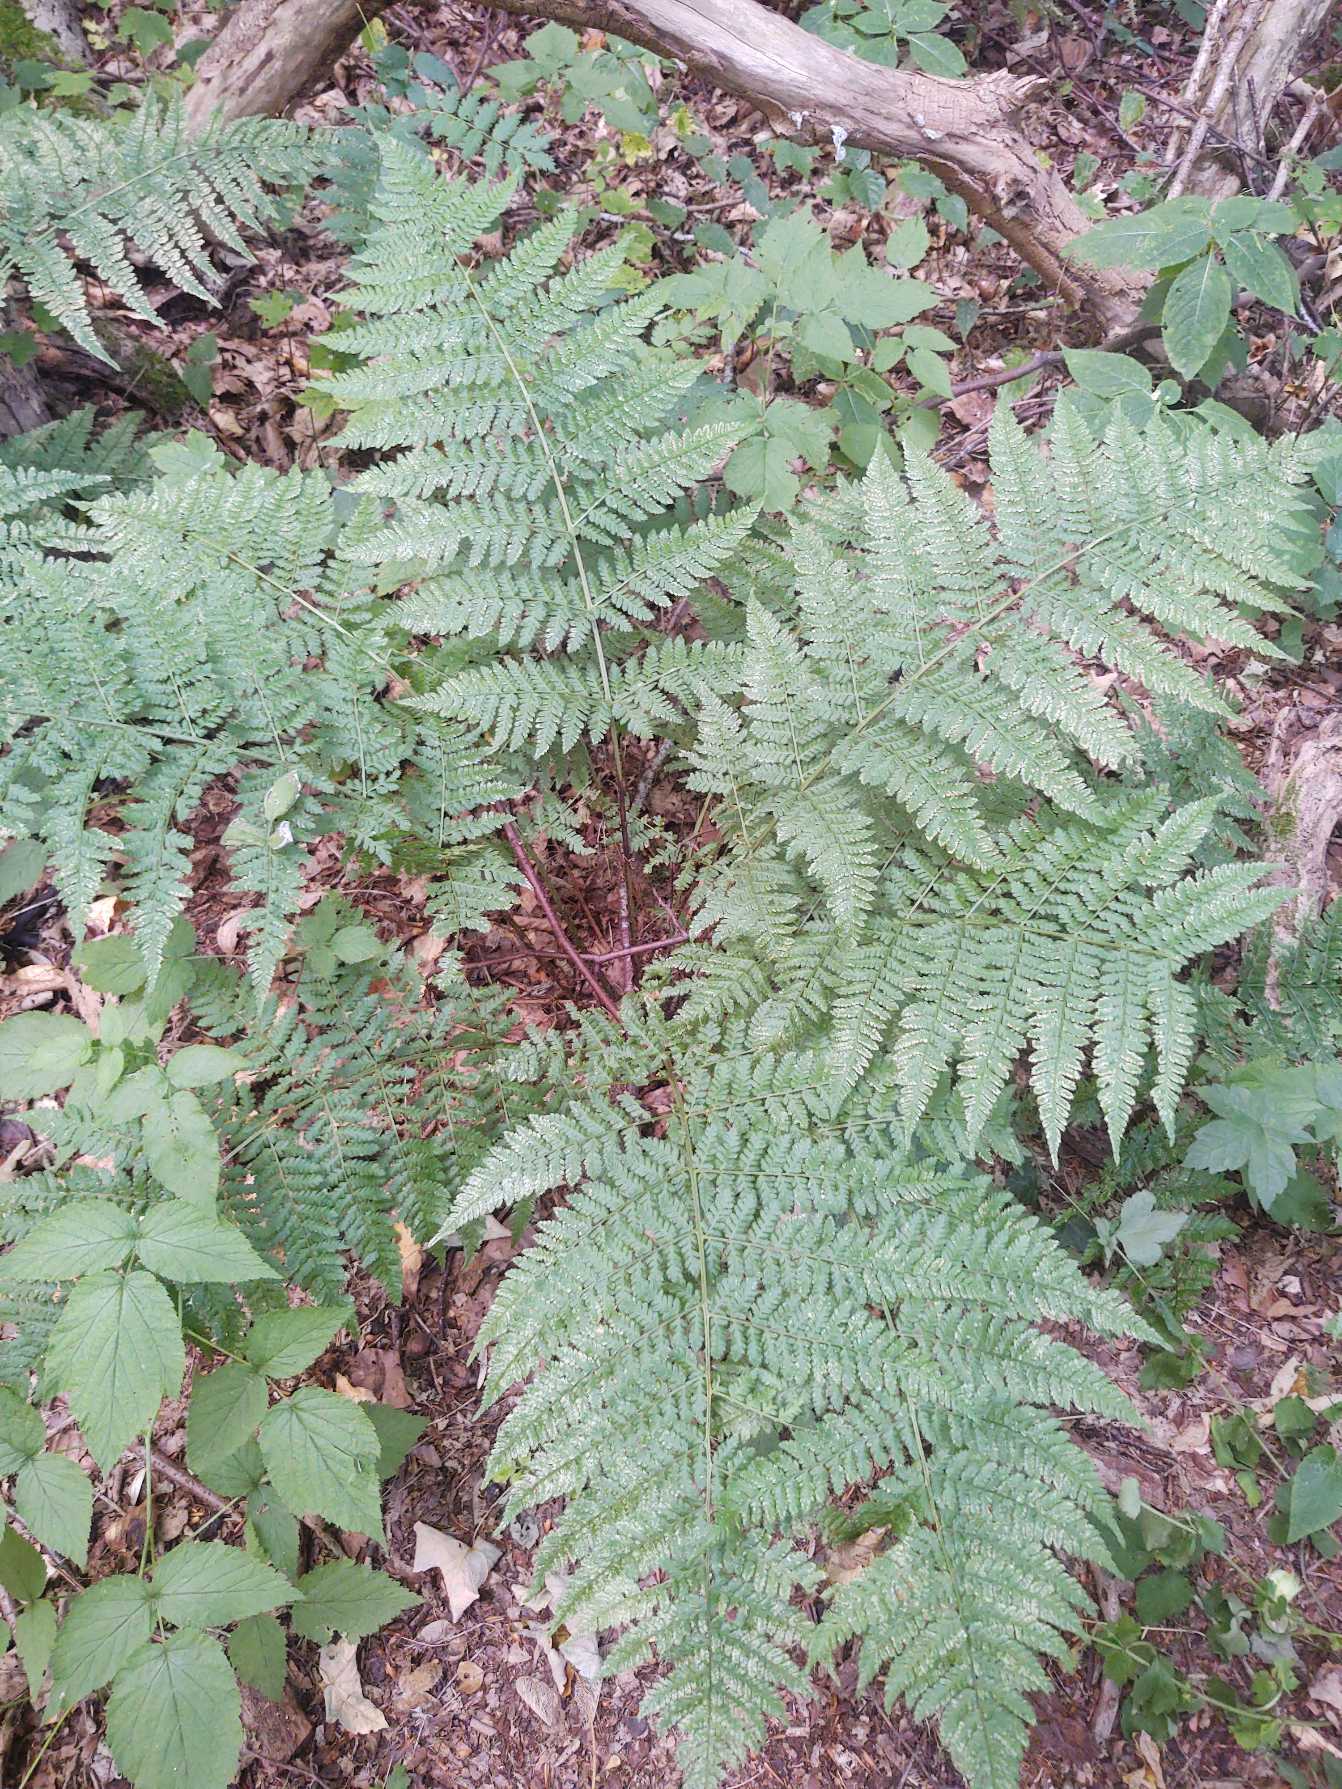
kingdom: Plantae
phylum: Tracheophyta
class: Polypodiopsida
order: Polypodiales
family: Dryopteridaceae
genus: Dryopteris
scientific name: Dryopteris dilatata
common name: Bredbladet mangeløv
